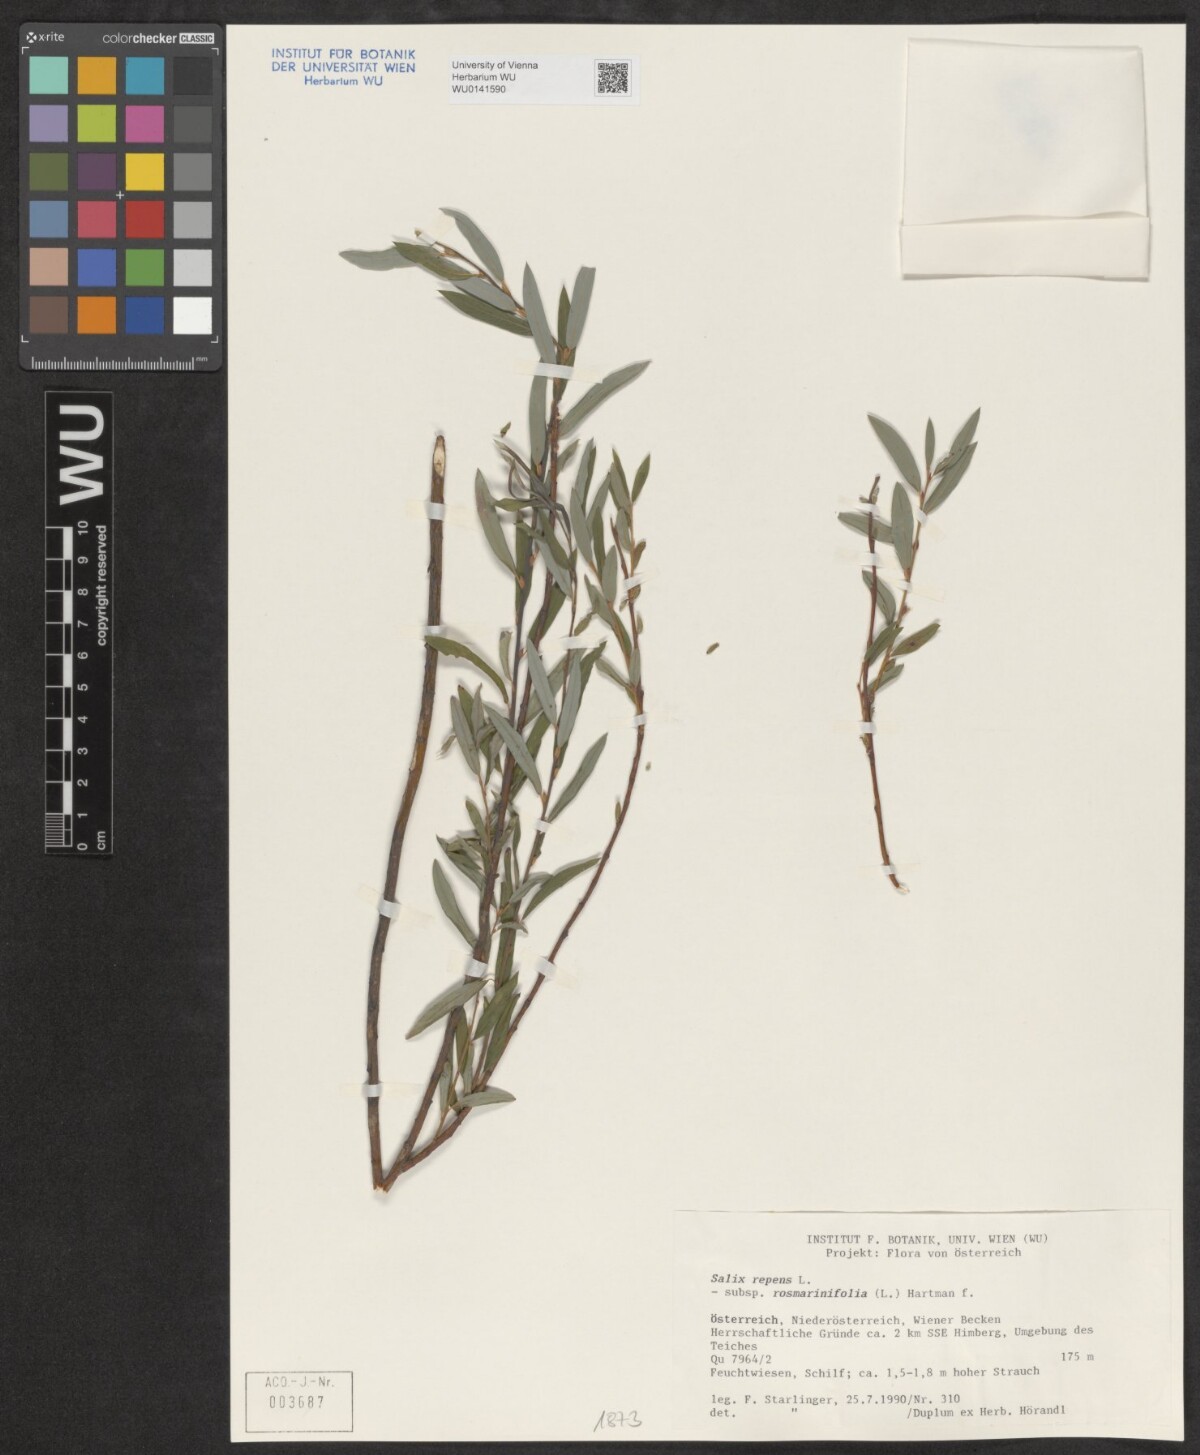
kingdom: Plantae
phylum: Tracheophyta
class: Magnoliopsida
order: Malpighiales
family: Salicaceae
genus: Salix
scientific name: Salix repens
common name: Creeping willow
